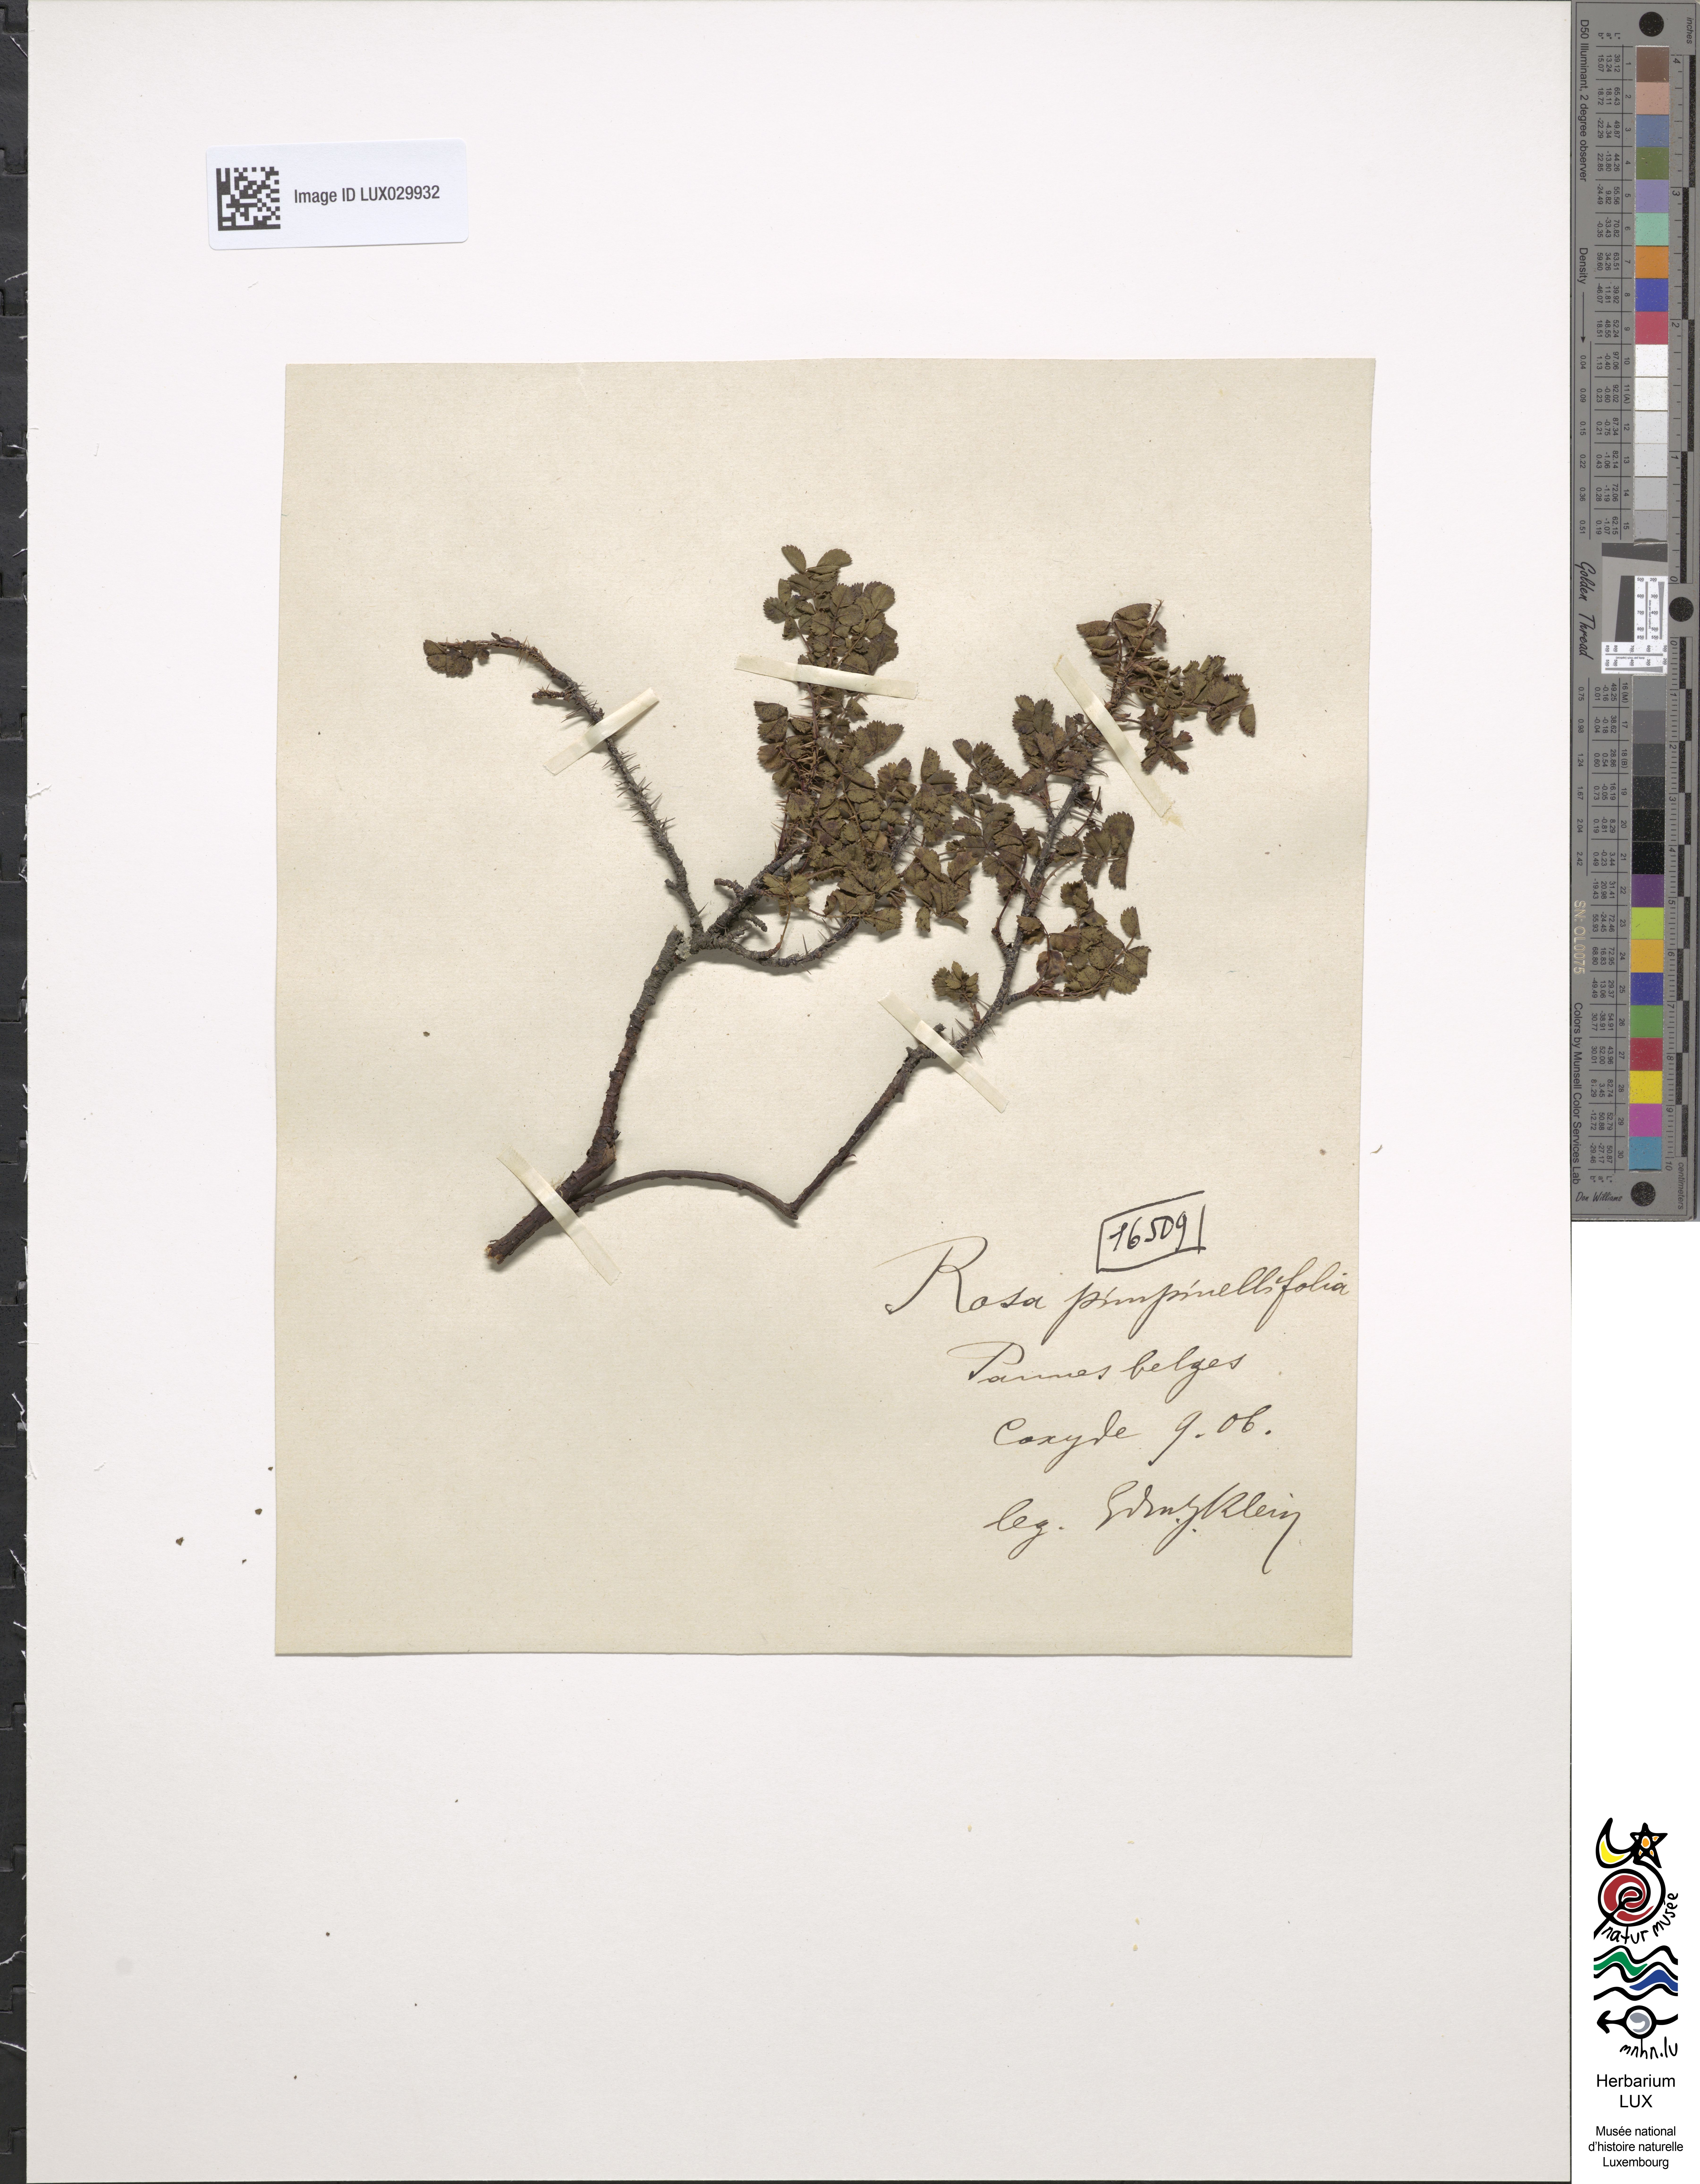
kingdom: Plantae
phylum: Tracheophyta
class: Magnoliopsida
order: Rosales
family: Rosaceae
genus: Rosa
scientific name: Rosa
